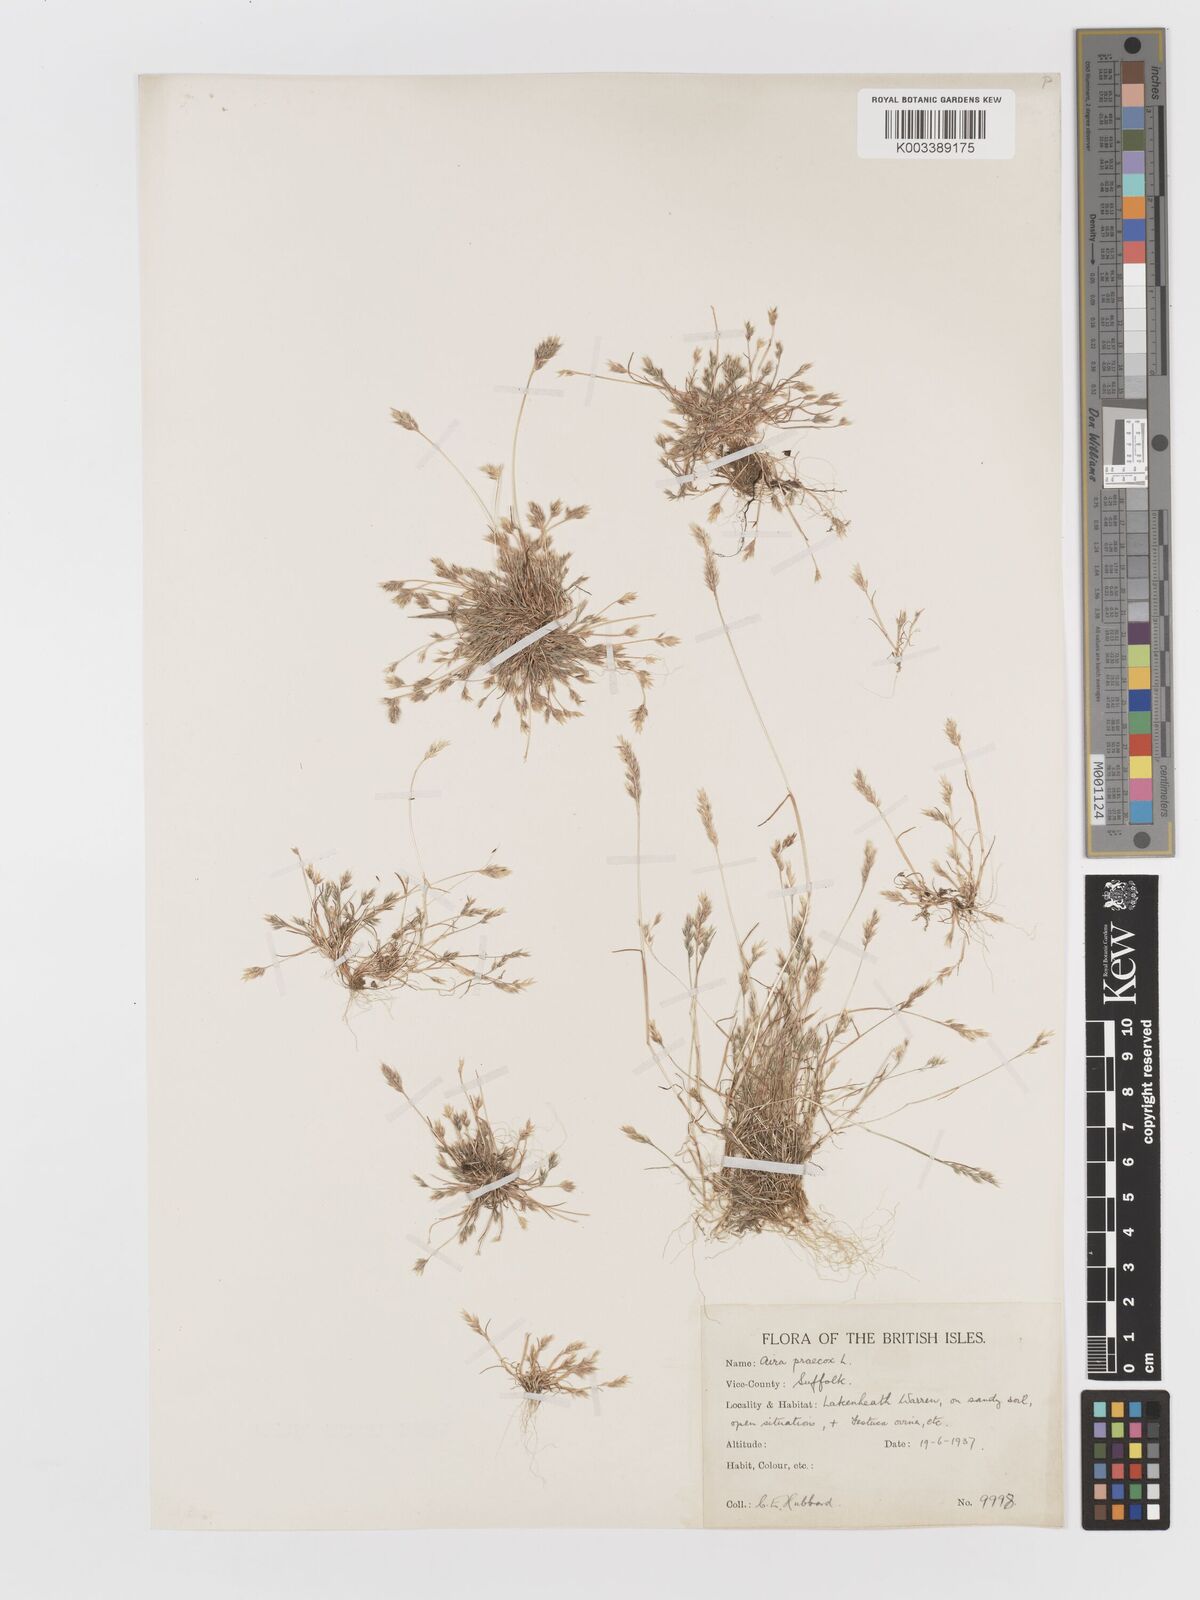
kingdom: Plantae
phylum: Tracheophyta
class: Liliopsida
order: Poales
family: Poaceae
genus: Aira
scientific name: Aira praecox
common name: Early hair-grass
